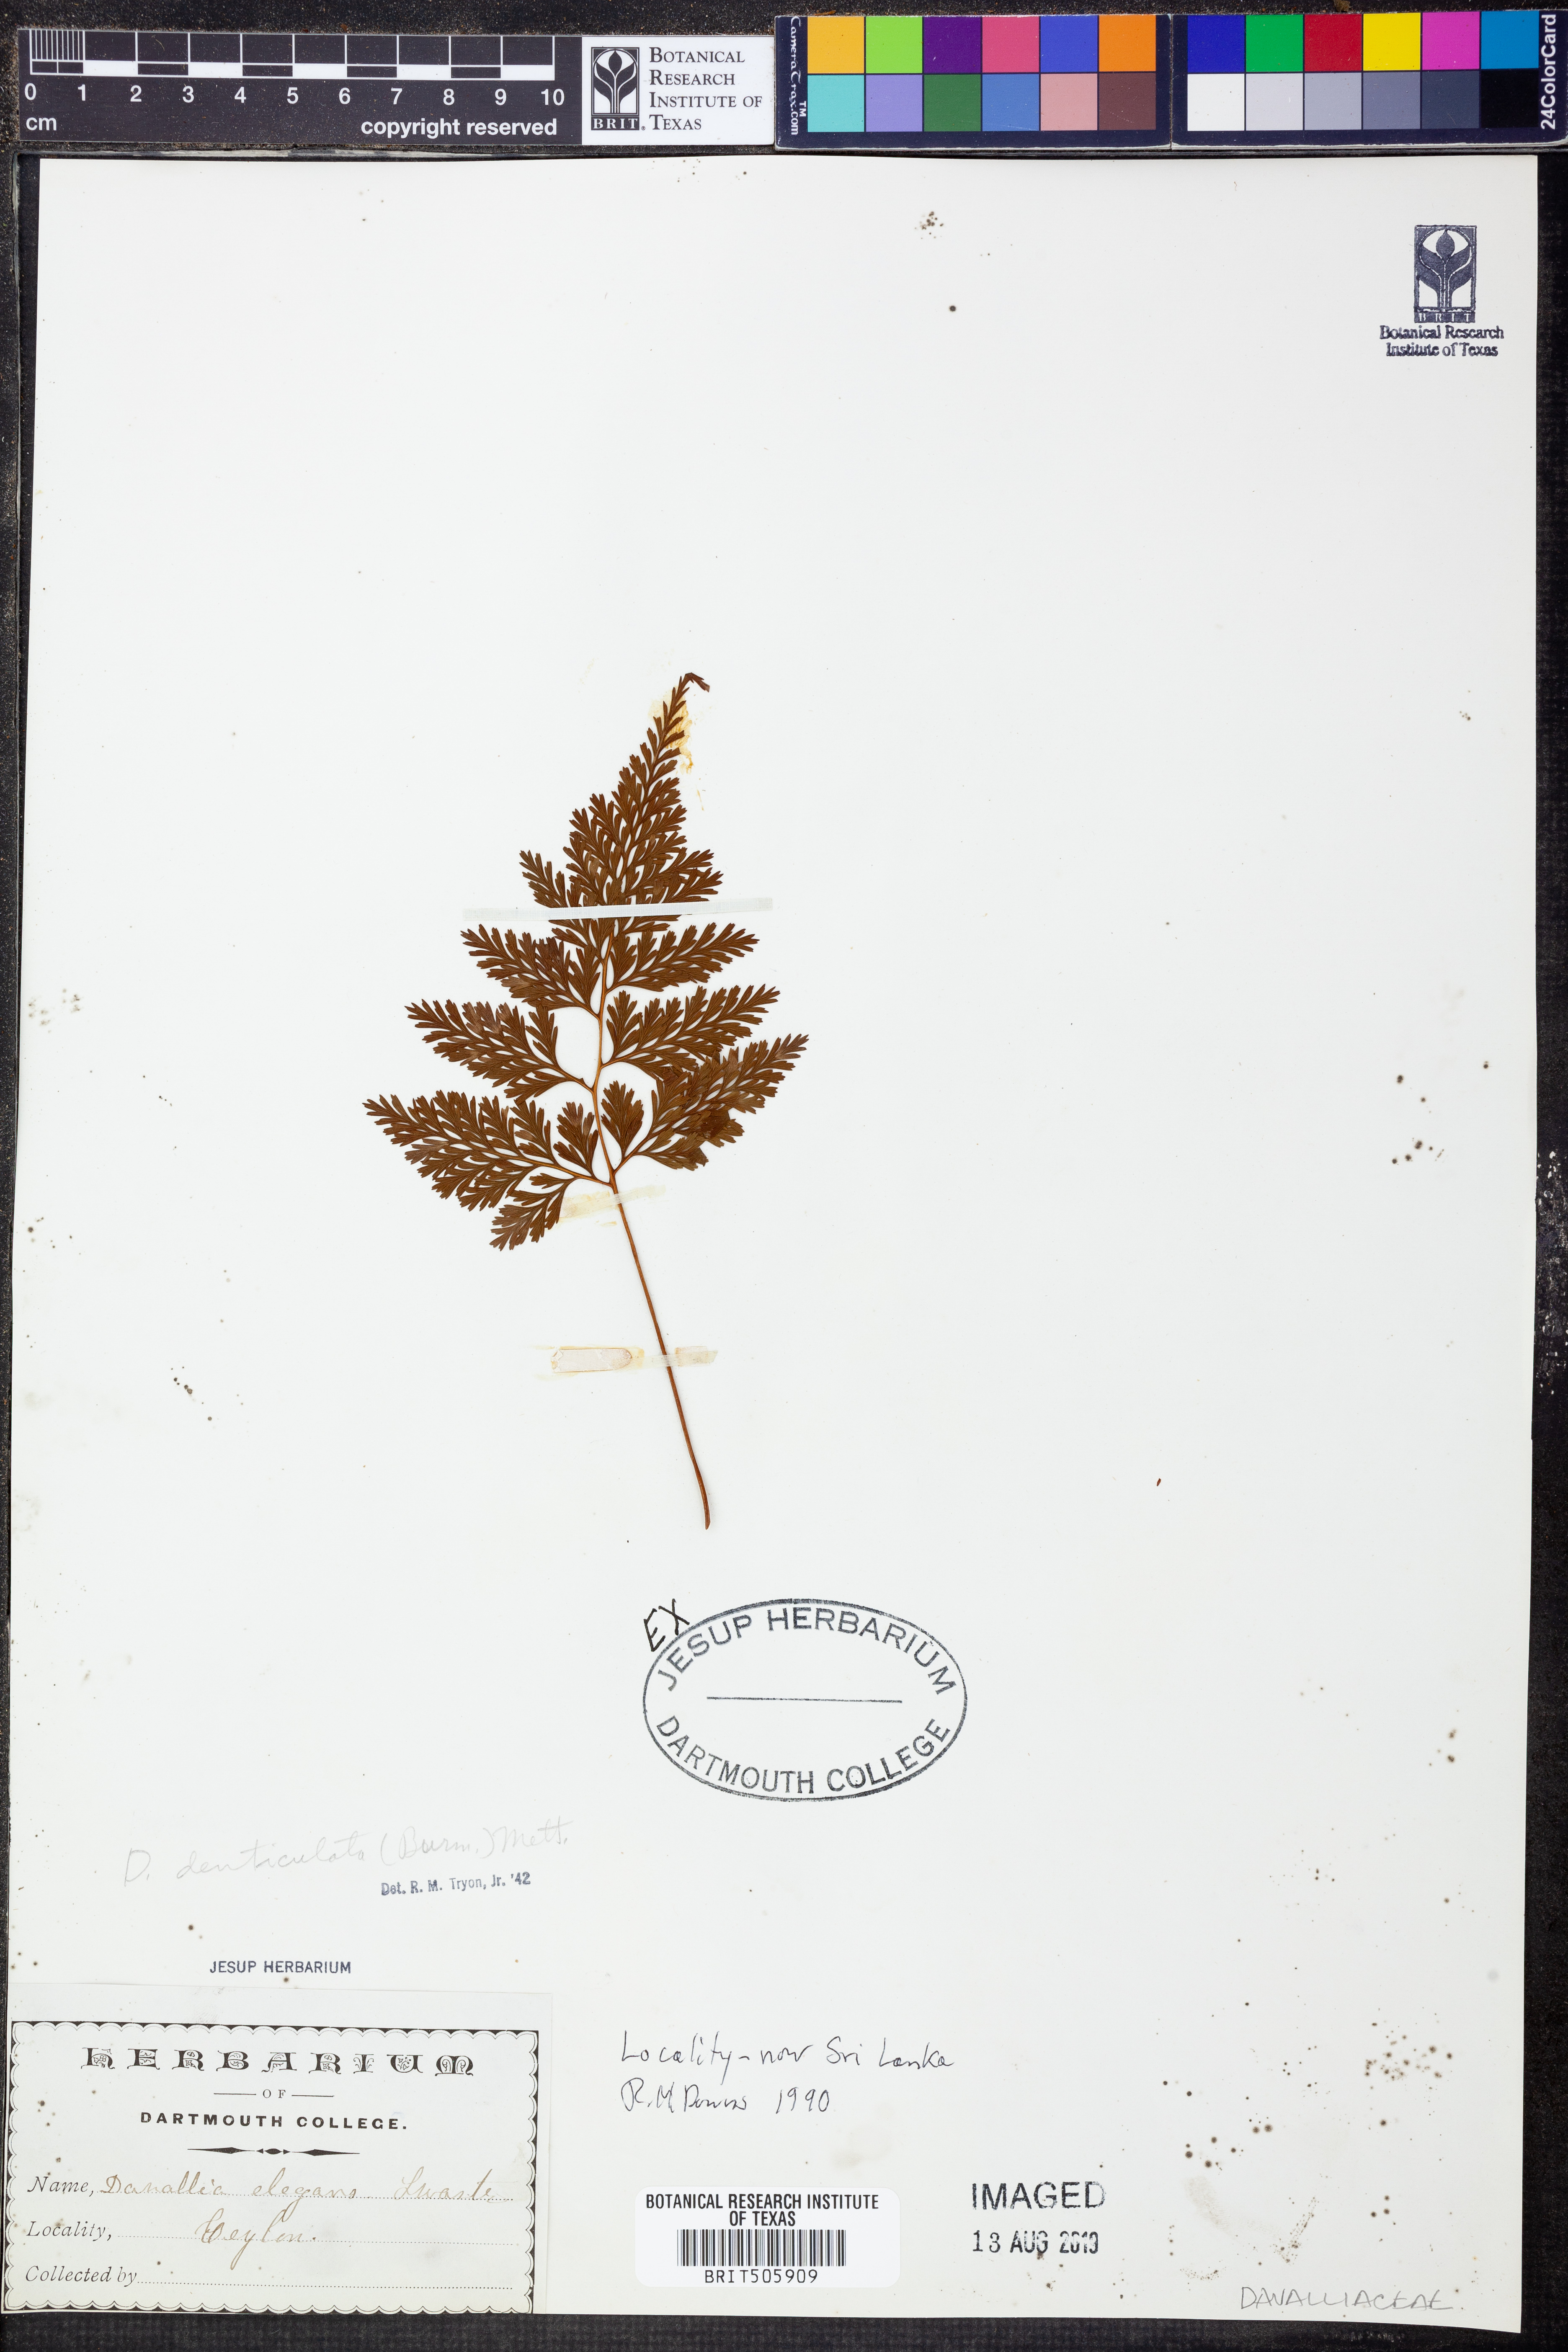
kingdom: Plantae
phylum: Tracheophyta
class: Polypodiopsida
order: Polypodiales
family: Davalliaceae
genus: Davallia
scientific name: Davallia denticulata
